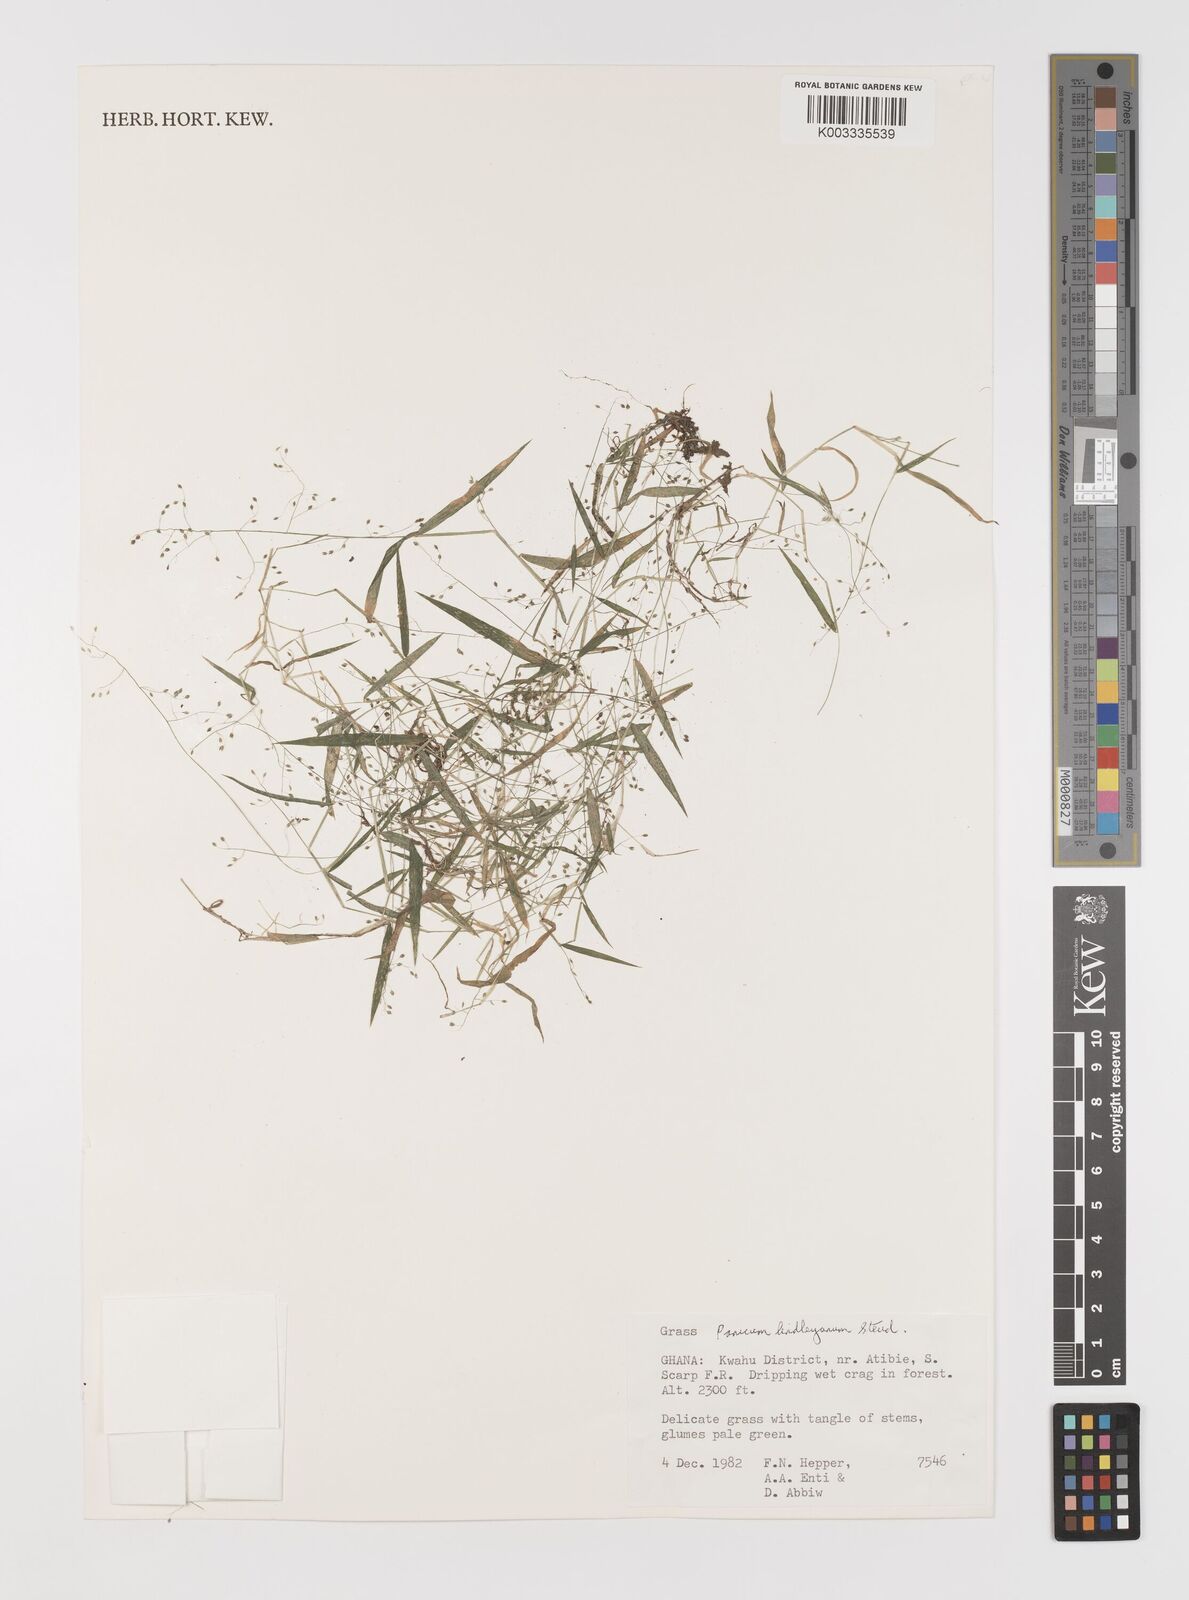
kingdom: Plantae
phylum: Tracheophyta
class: Liliopsida
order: Poales
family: Poaceae
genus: Trichanthecium
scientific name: Trichanthecium tenellum
